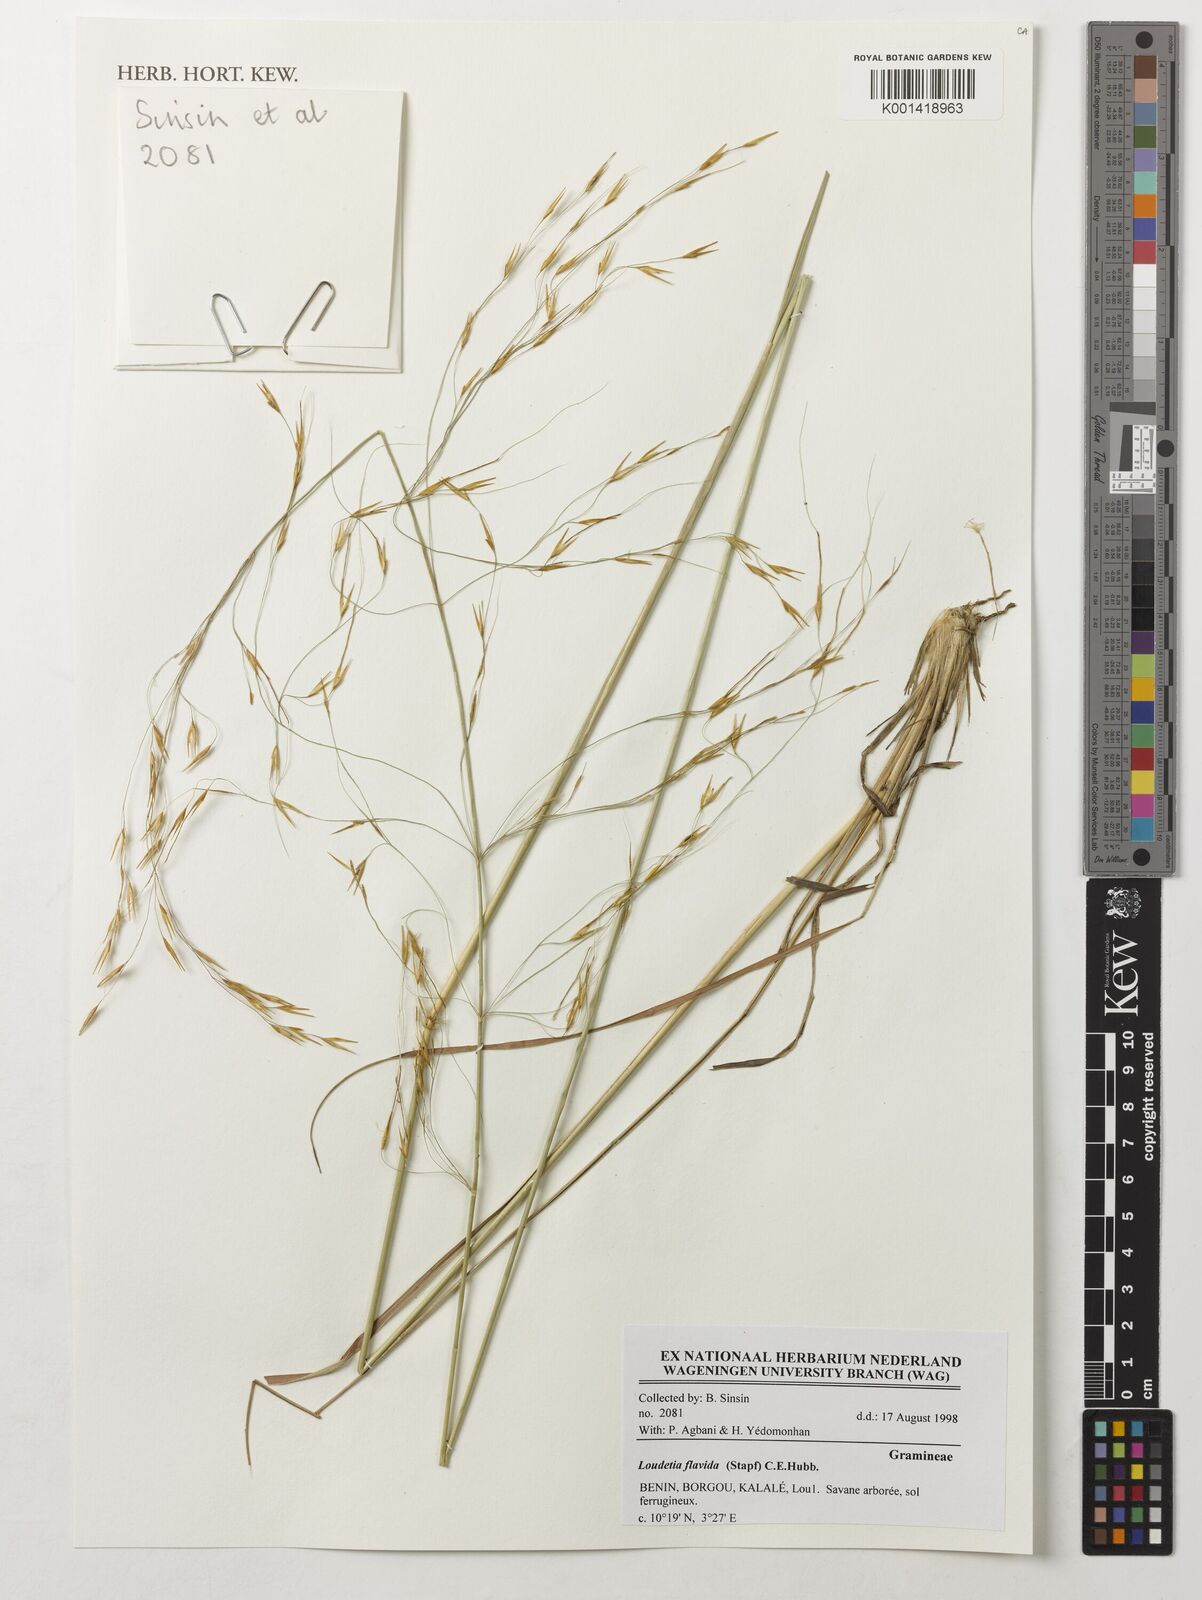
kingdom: Plantae
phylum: Tracheophyta
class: Liliopsida
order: Poales
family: Poaceae
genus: Loudetia
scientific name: Loudetia flavida
